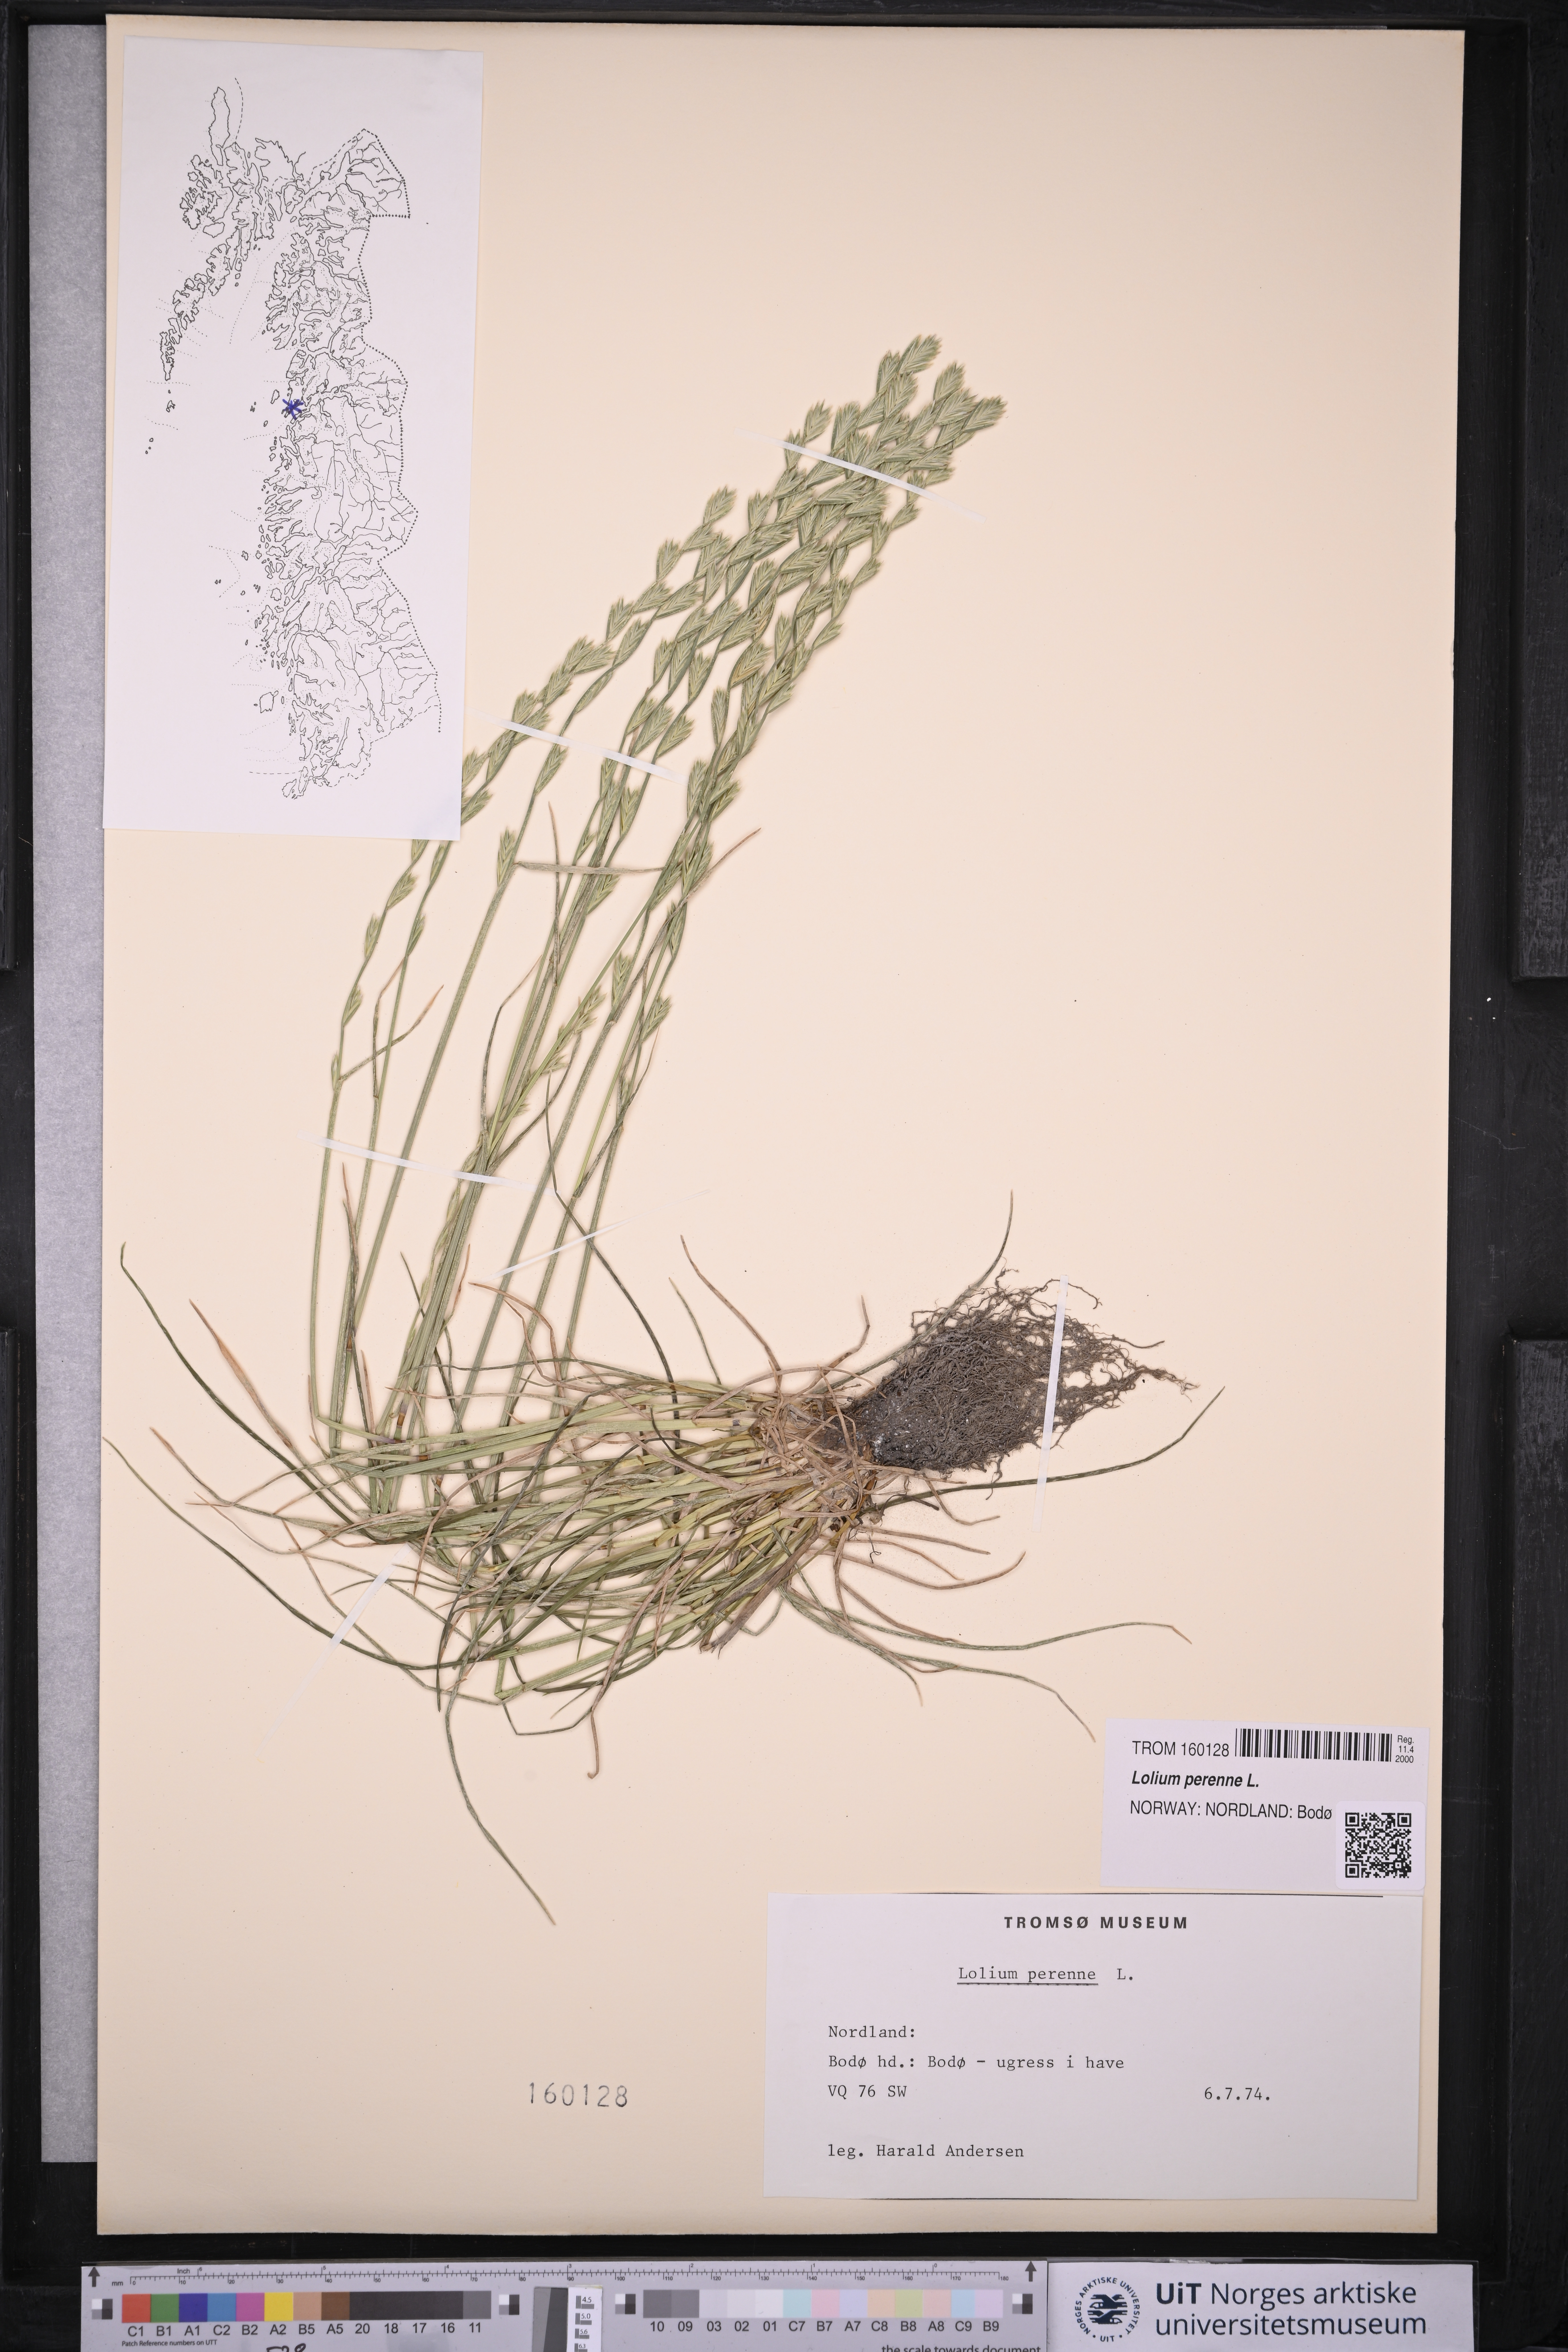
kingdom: Plantae
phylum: Tracheophyta
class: Liliopsida
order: Poales
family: Poaceae
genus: Lolium
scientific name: Lolium perenne
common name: Perennial ryegrass
